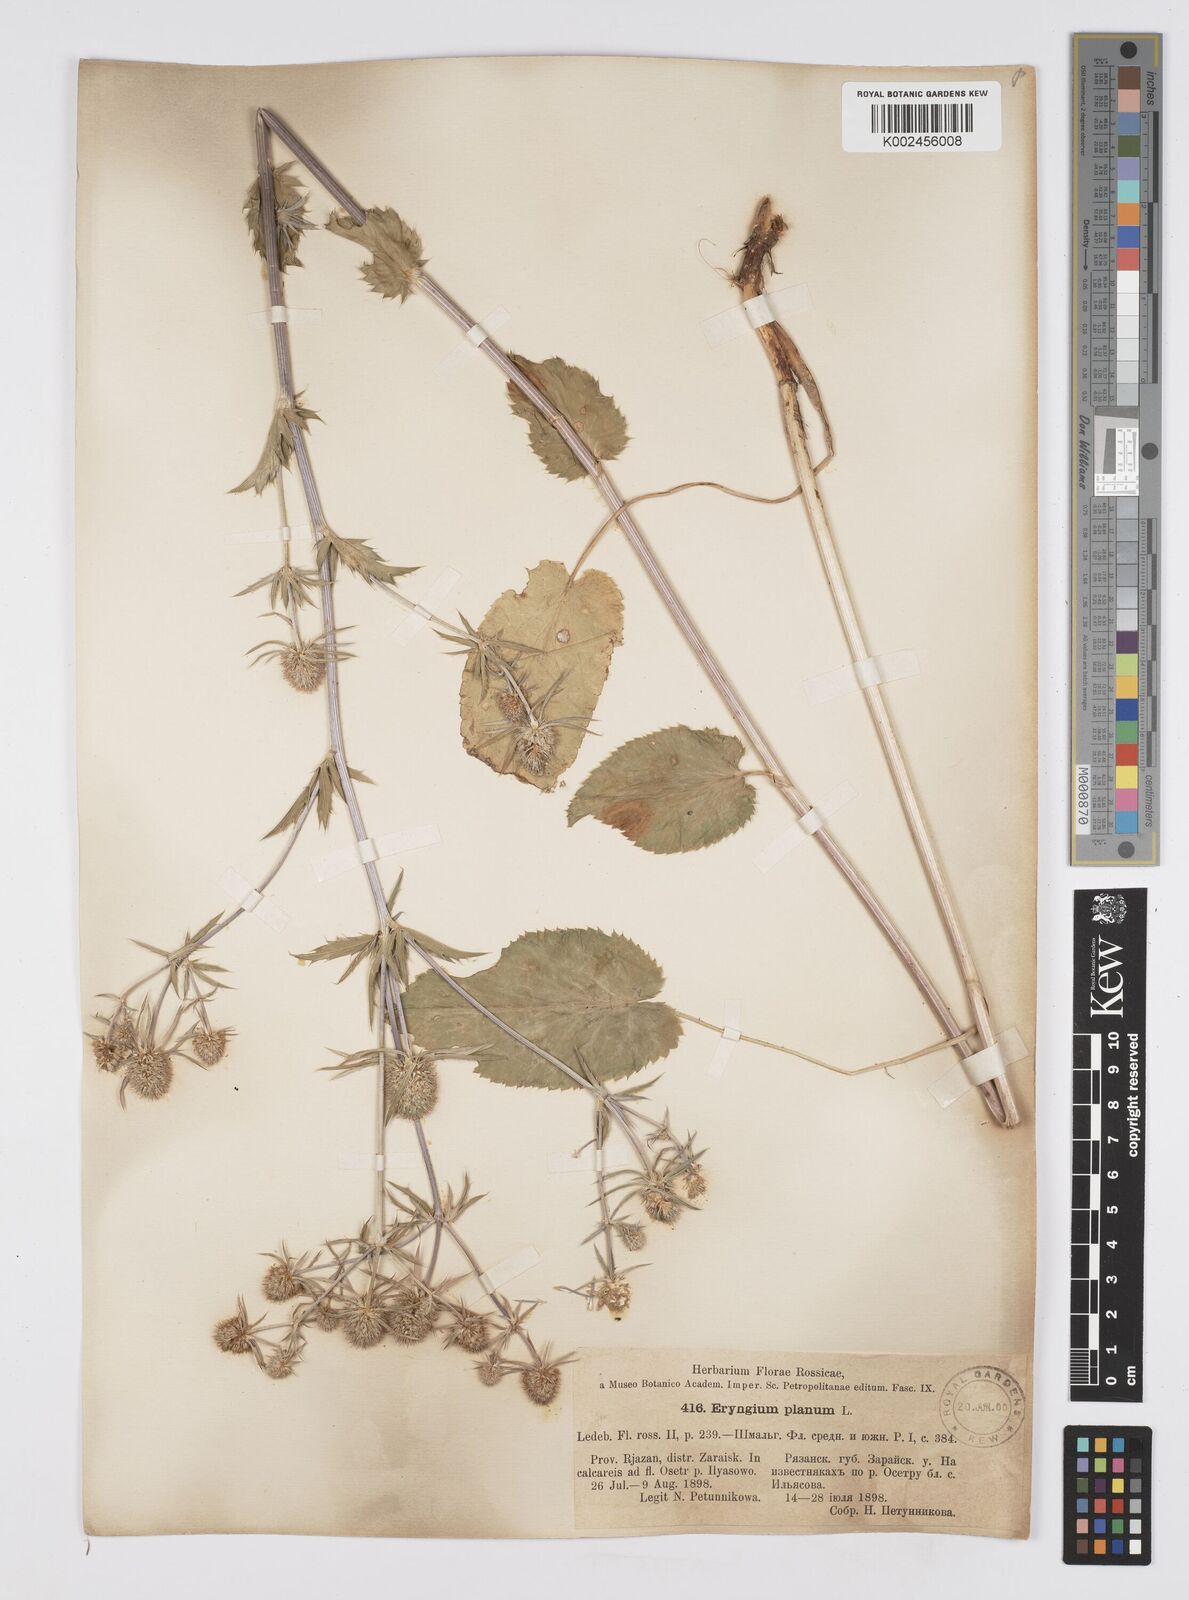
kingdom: Plantae
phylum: Tracheophyta
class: Magnoliopsida
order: Apiales
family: Apiaceae
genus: Eryngium
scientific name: Eryngium planum
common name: Blue eryngo
